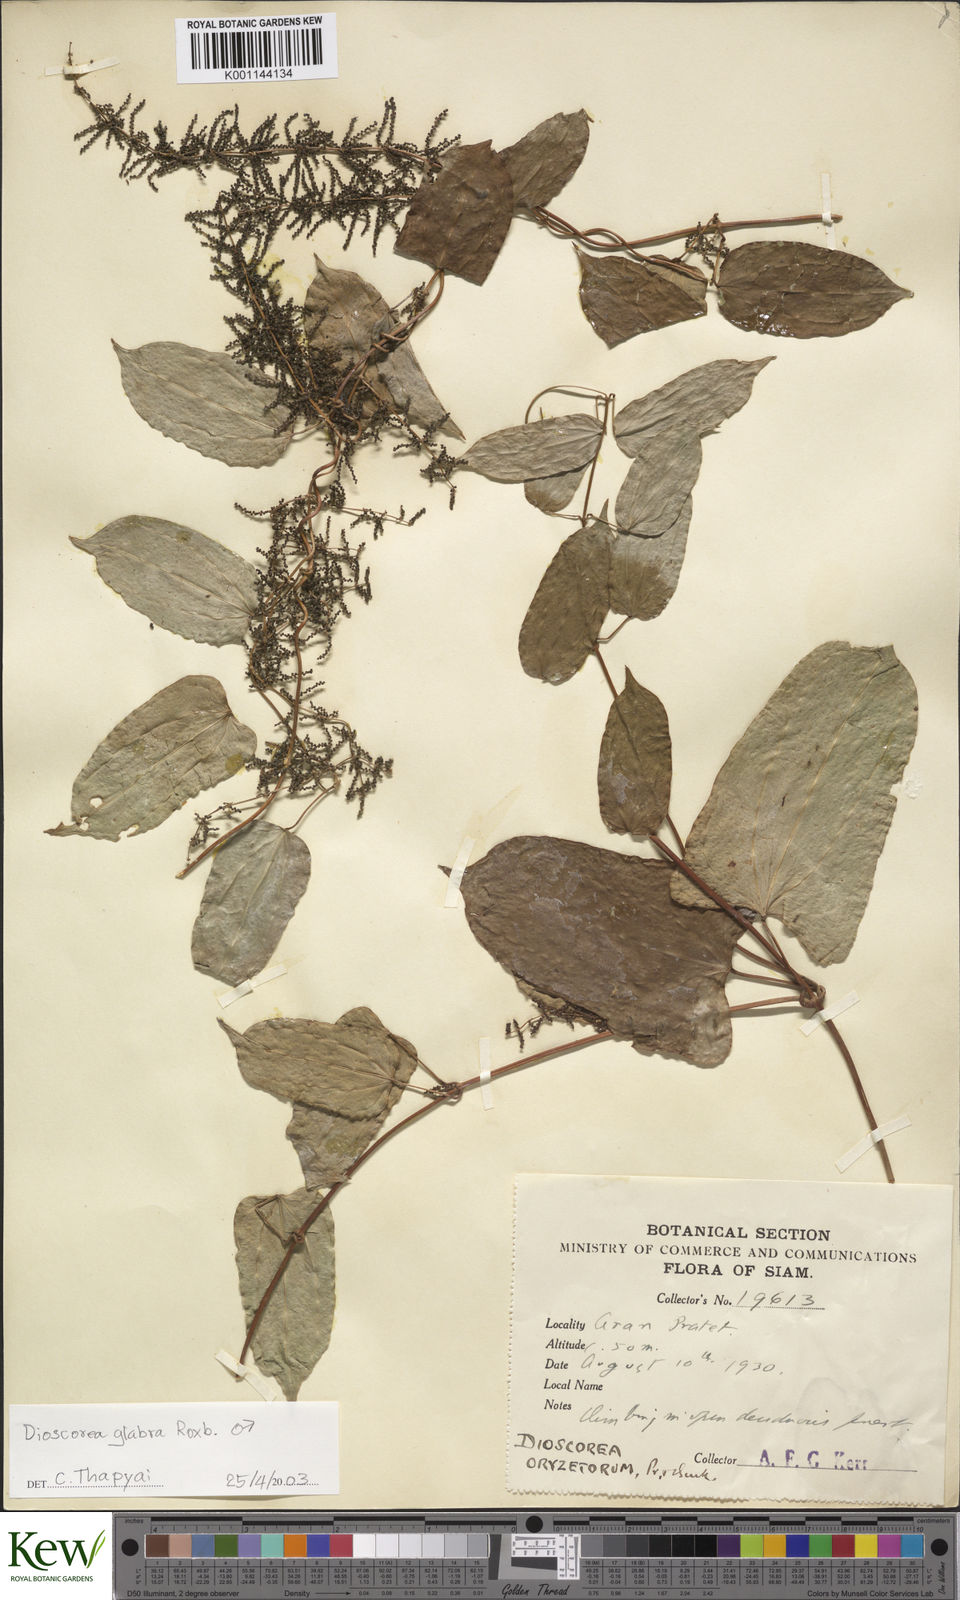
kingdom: Plantae
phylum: Tracheophyta
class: Liliopsida
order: Dioscoreales
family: Dioscoreaceae
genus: Dioscorea
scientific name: Dioscorea glabra
